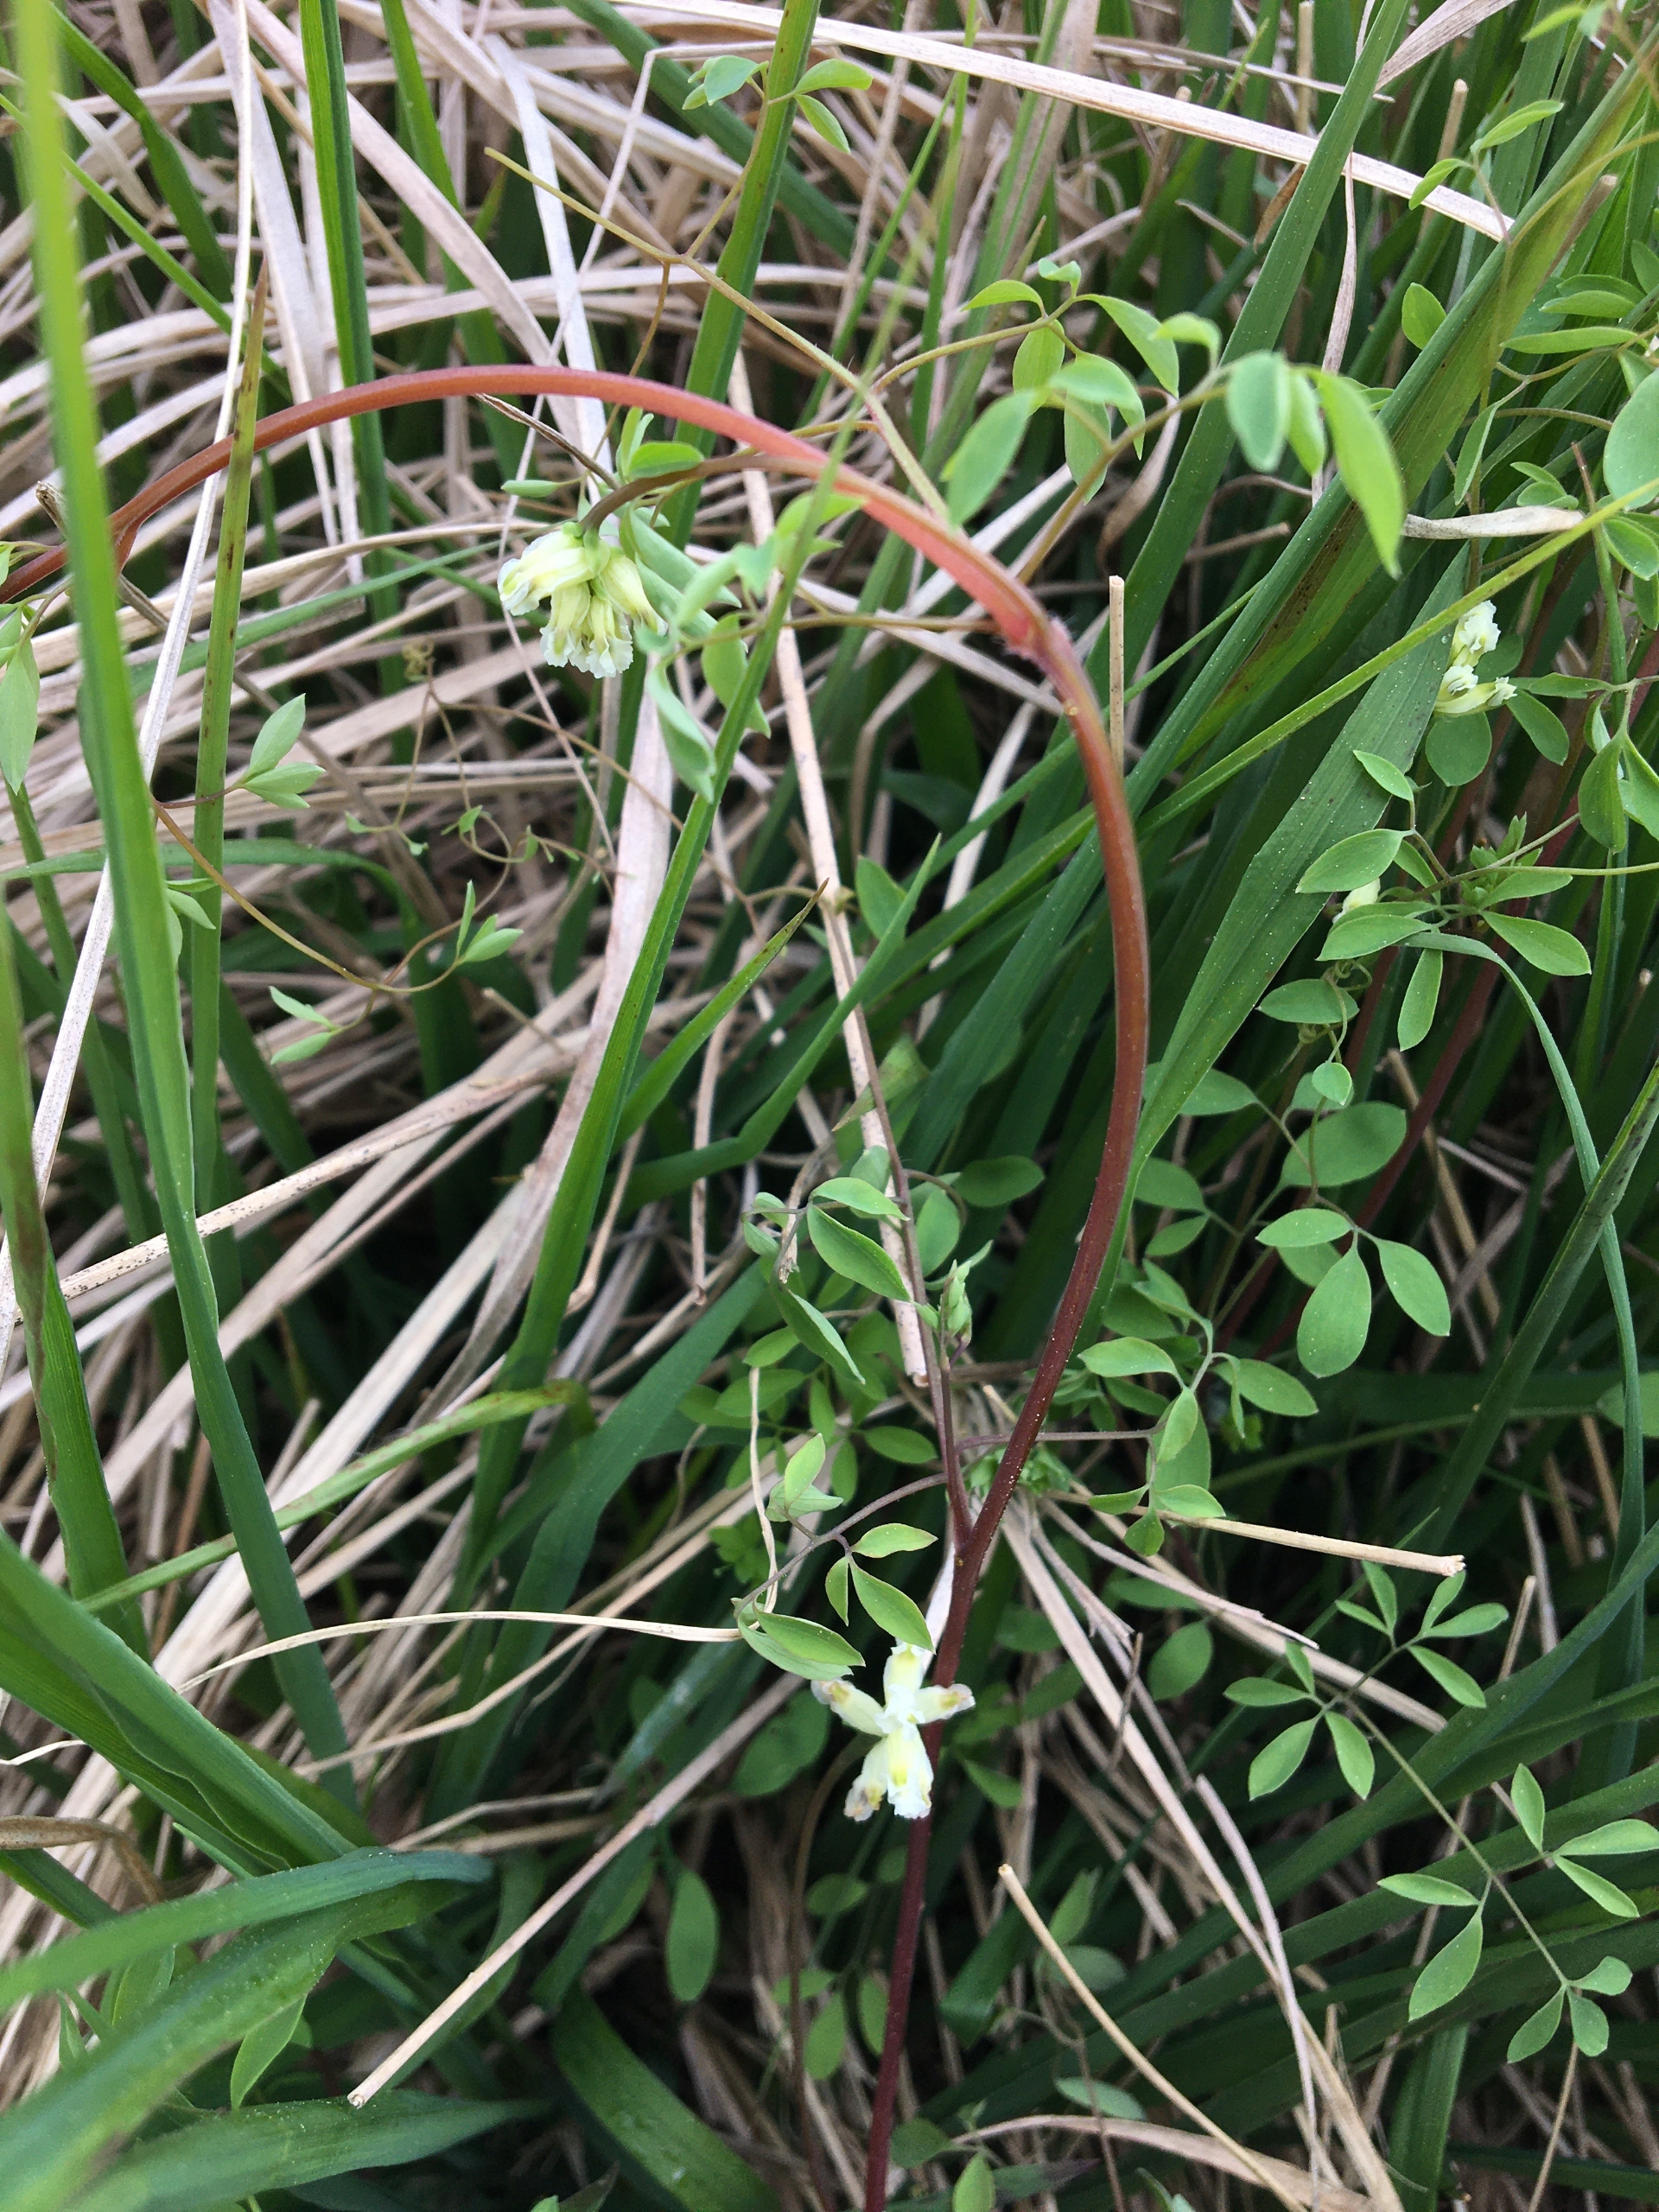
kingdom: Plantae
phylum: Tracheophyta
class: Magnoliopsida
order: Ranunculales
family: Papaveraceae
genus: Ceratocapnos
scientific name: Ceratocapnos claviculata
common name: Klatrende lærkespore
